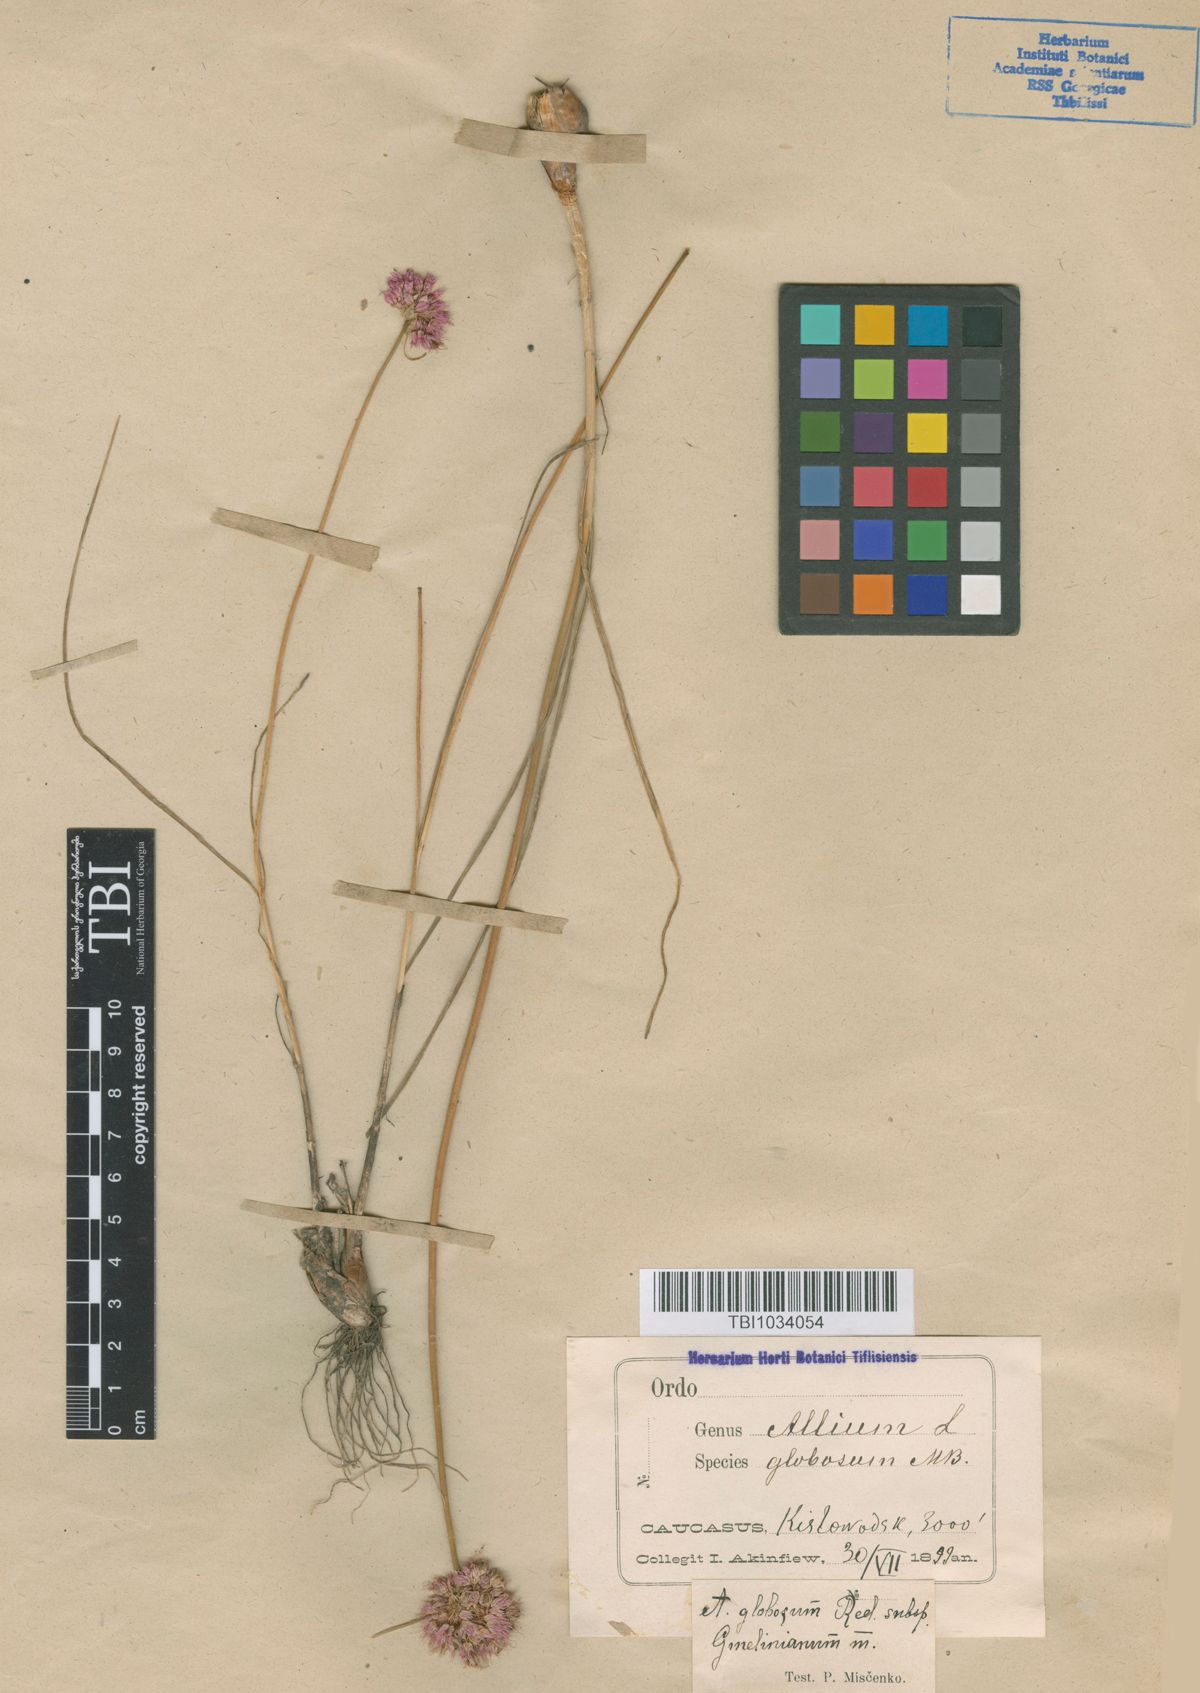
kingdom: Plantae
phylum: Tracheophyta
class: Liliopsida
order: Asparagales
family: Amaryllidaceae
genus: Allium
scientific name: Allium saxatile
